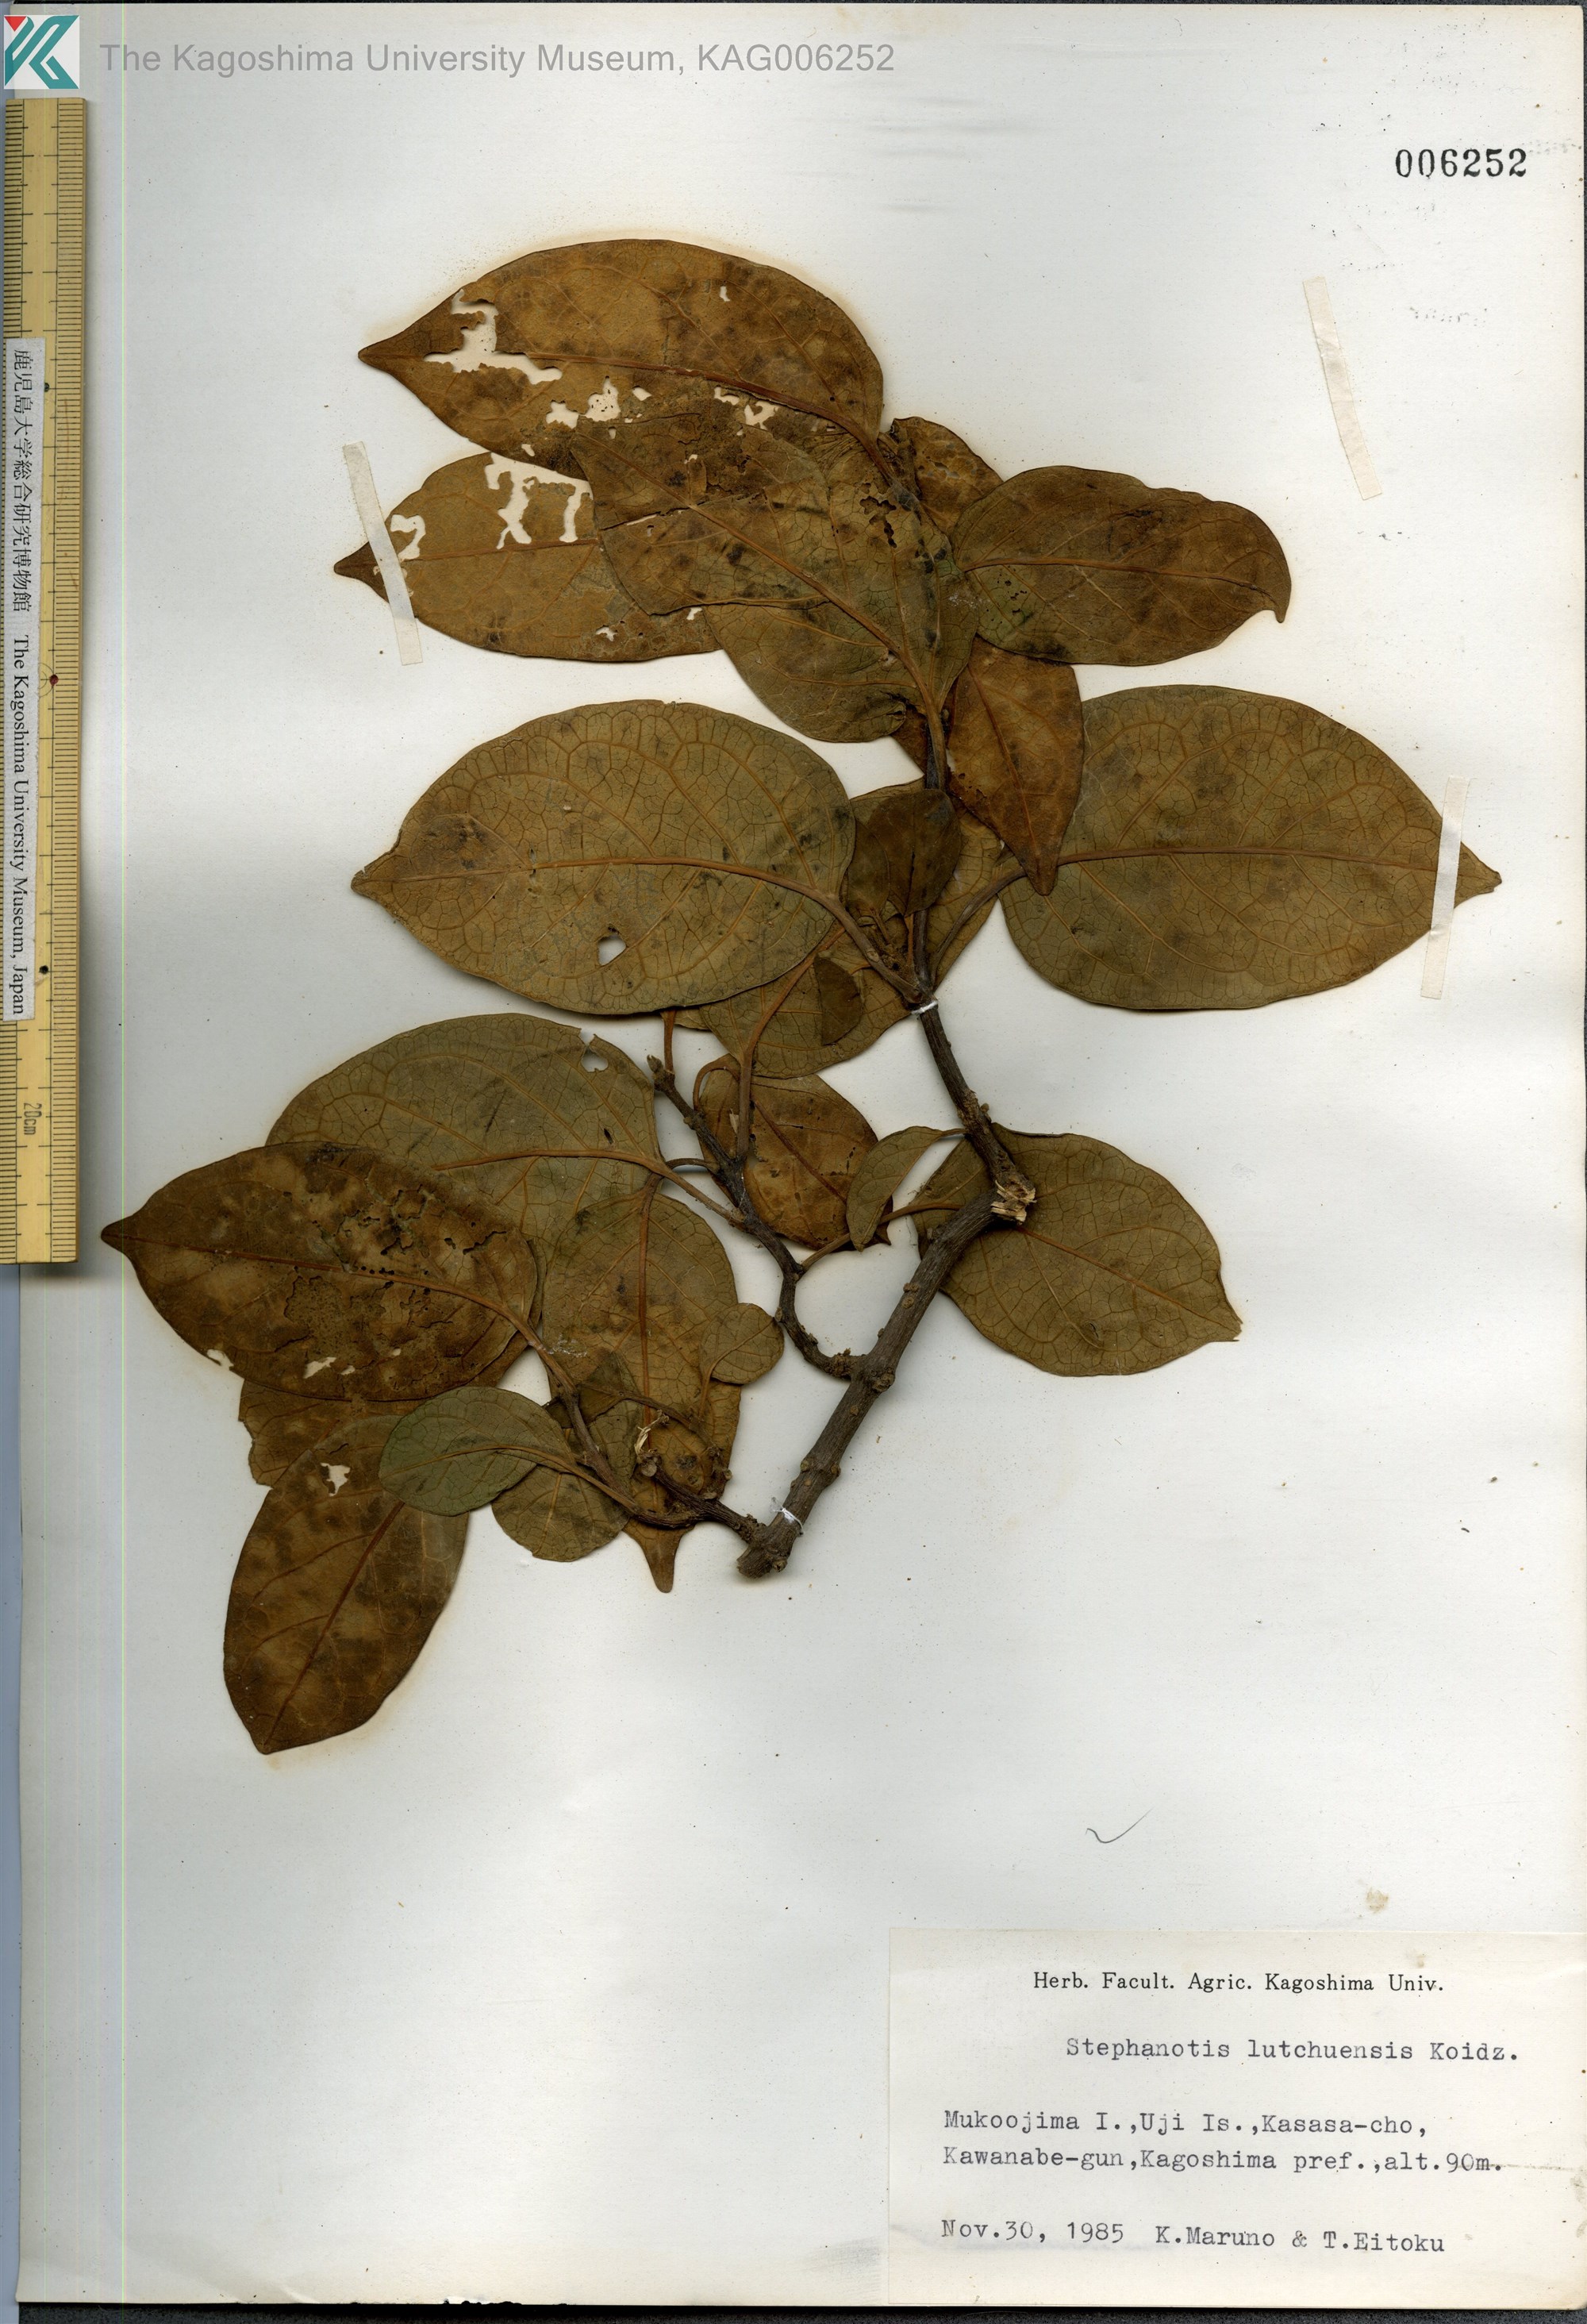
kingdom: Plantae
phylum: Tracheophyta
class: Magnoliopsida
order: Gentianales
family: Apocynaceae
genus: Jasminanthes
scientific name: Jasminanthes mucronata
